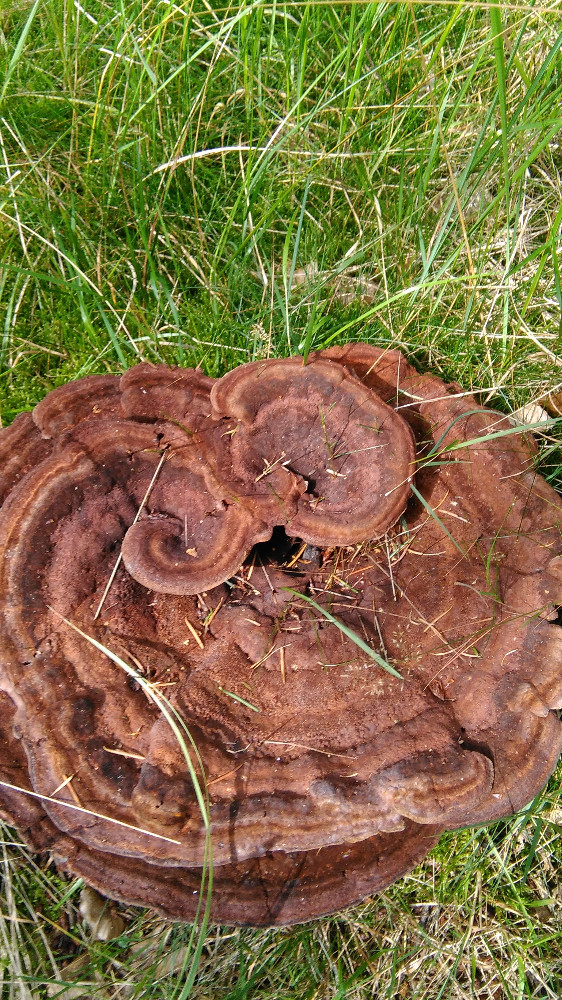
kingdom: Fungi
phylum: Basidiomycota
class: Agaricomycetes
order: Polyporales
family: Laetiporaceae
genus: Phaeolus
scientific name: Phaeolus schweinitzii
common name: brunporesvamp
